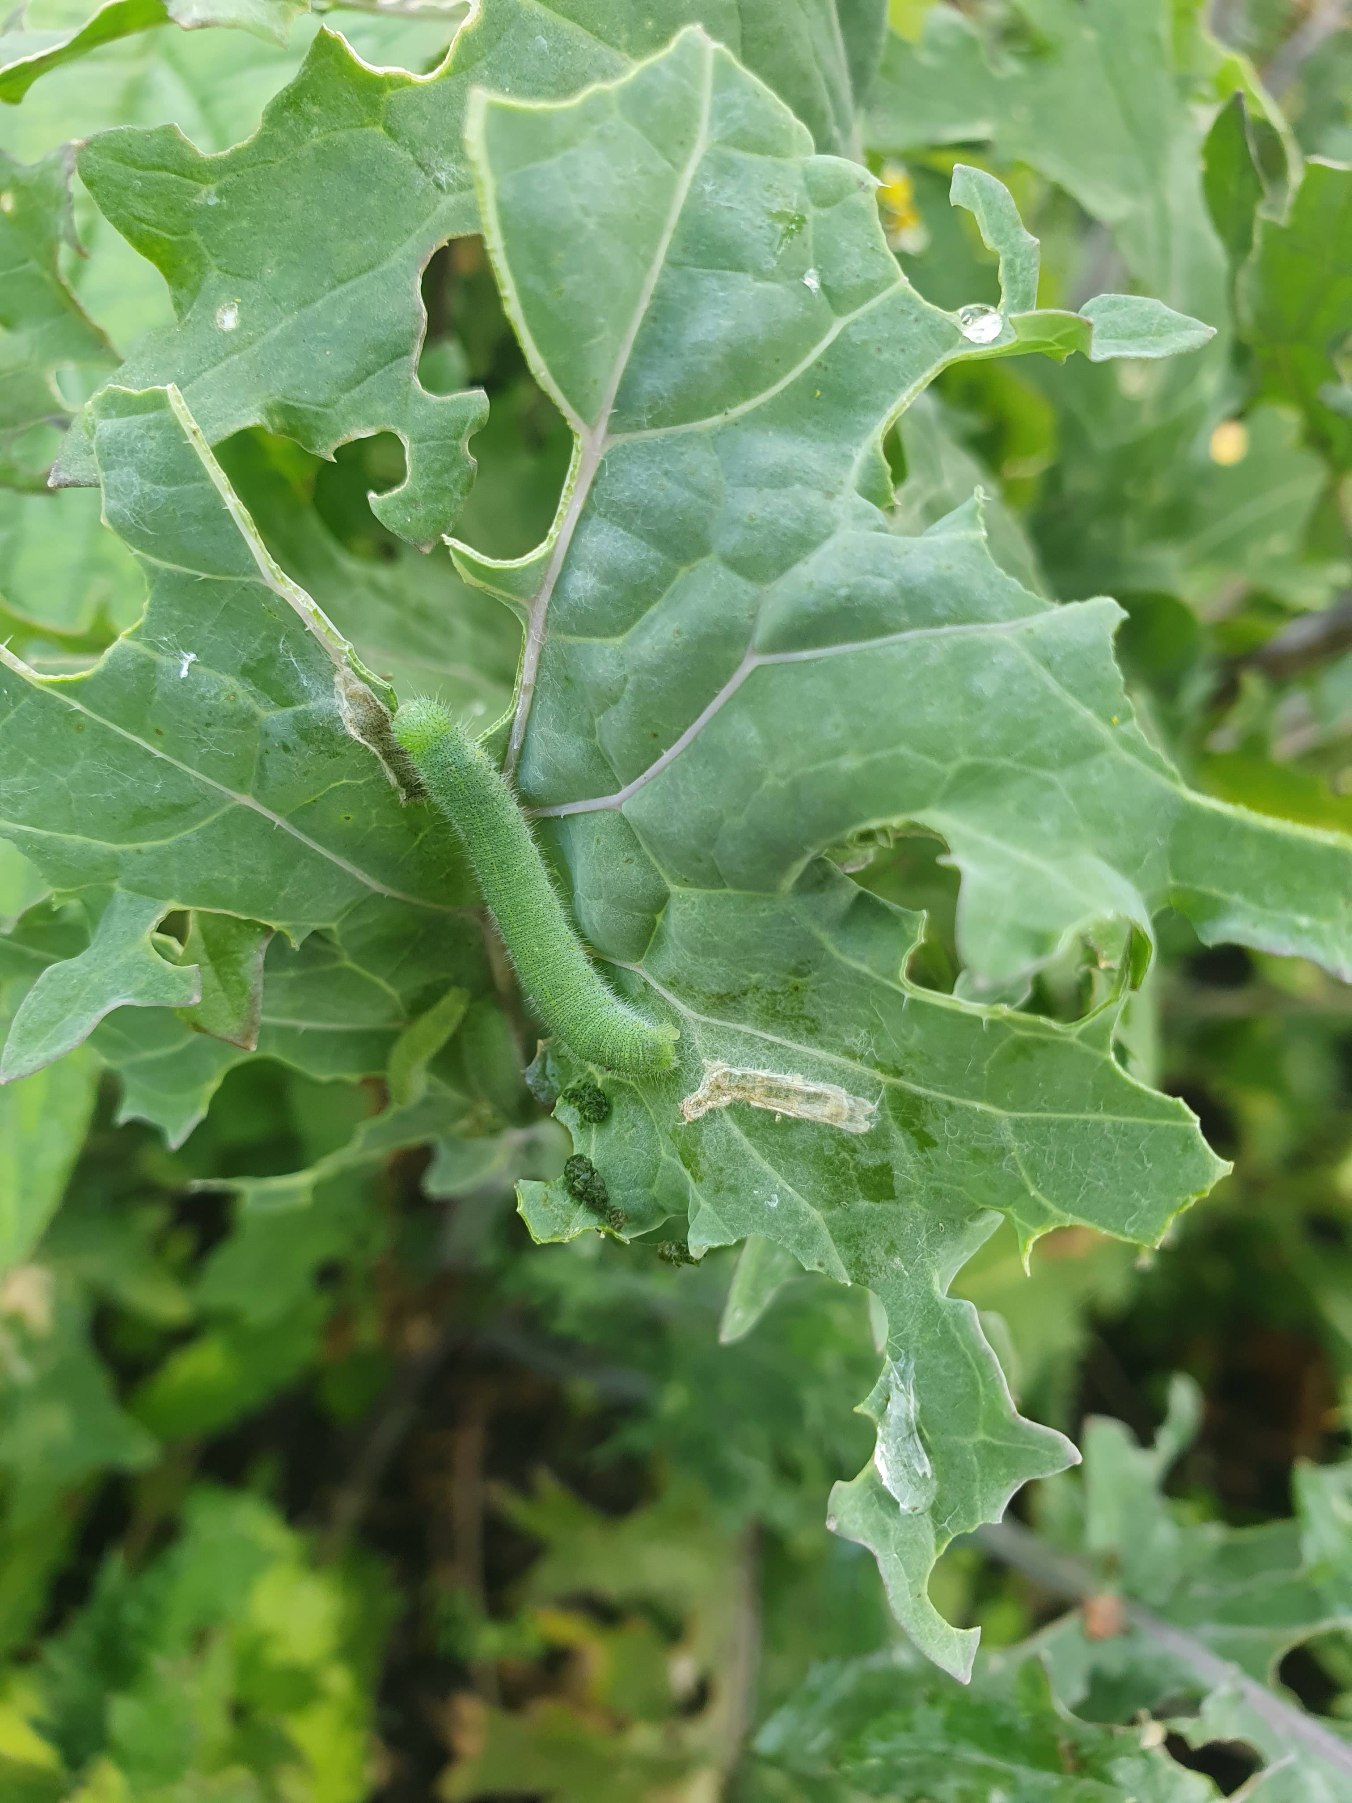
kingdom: Animalia
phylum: Arthropoda
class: Insecta
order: Lepidoptera
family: Pieridae
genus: Pieris
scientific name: Pieris rapae
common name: Lille kålsommerfugl
